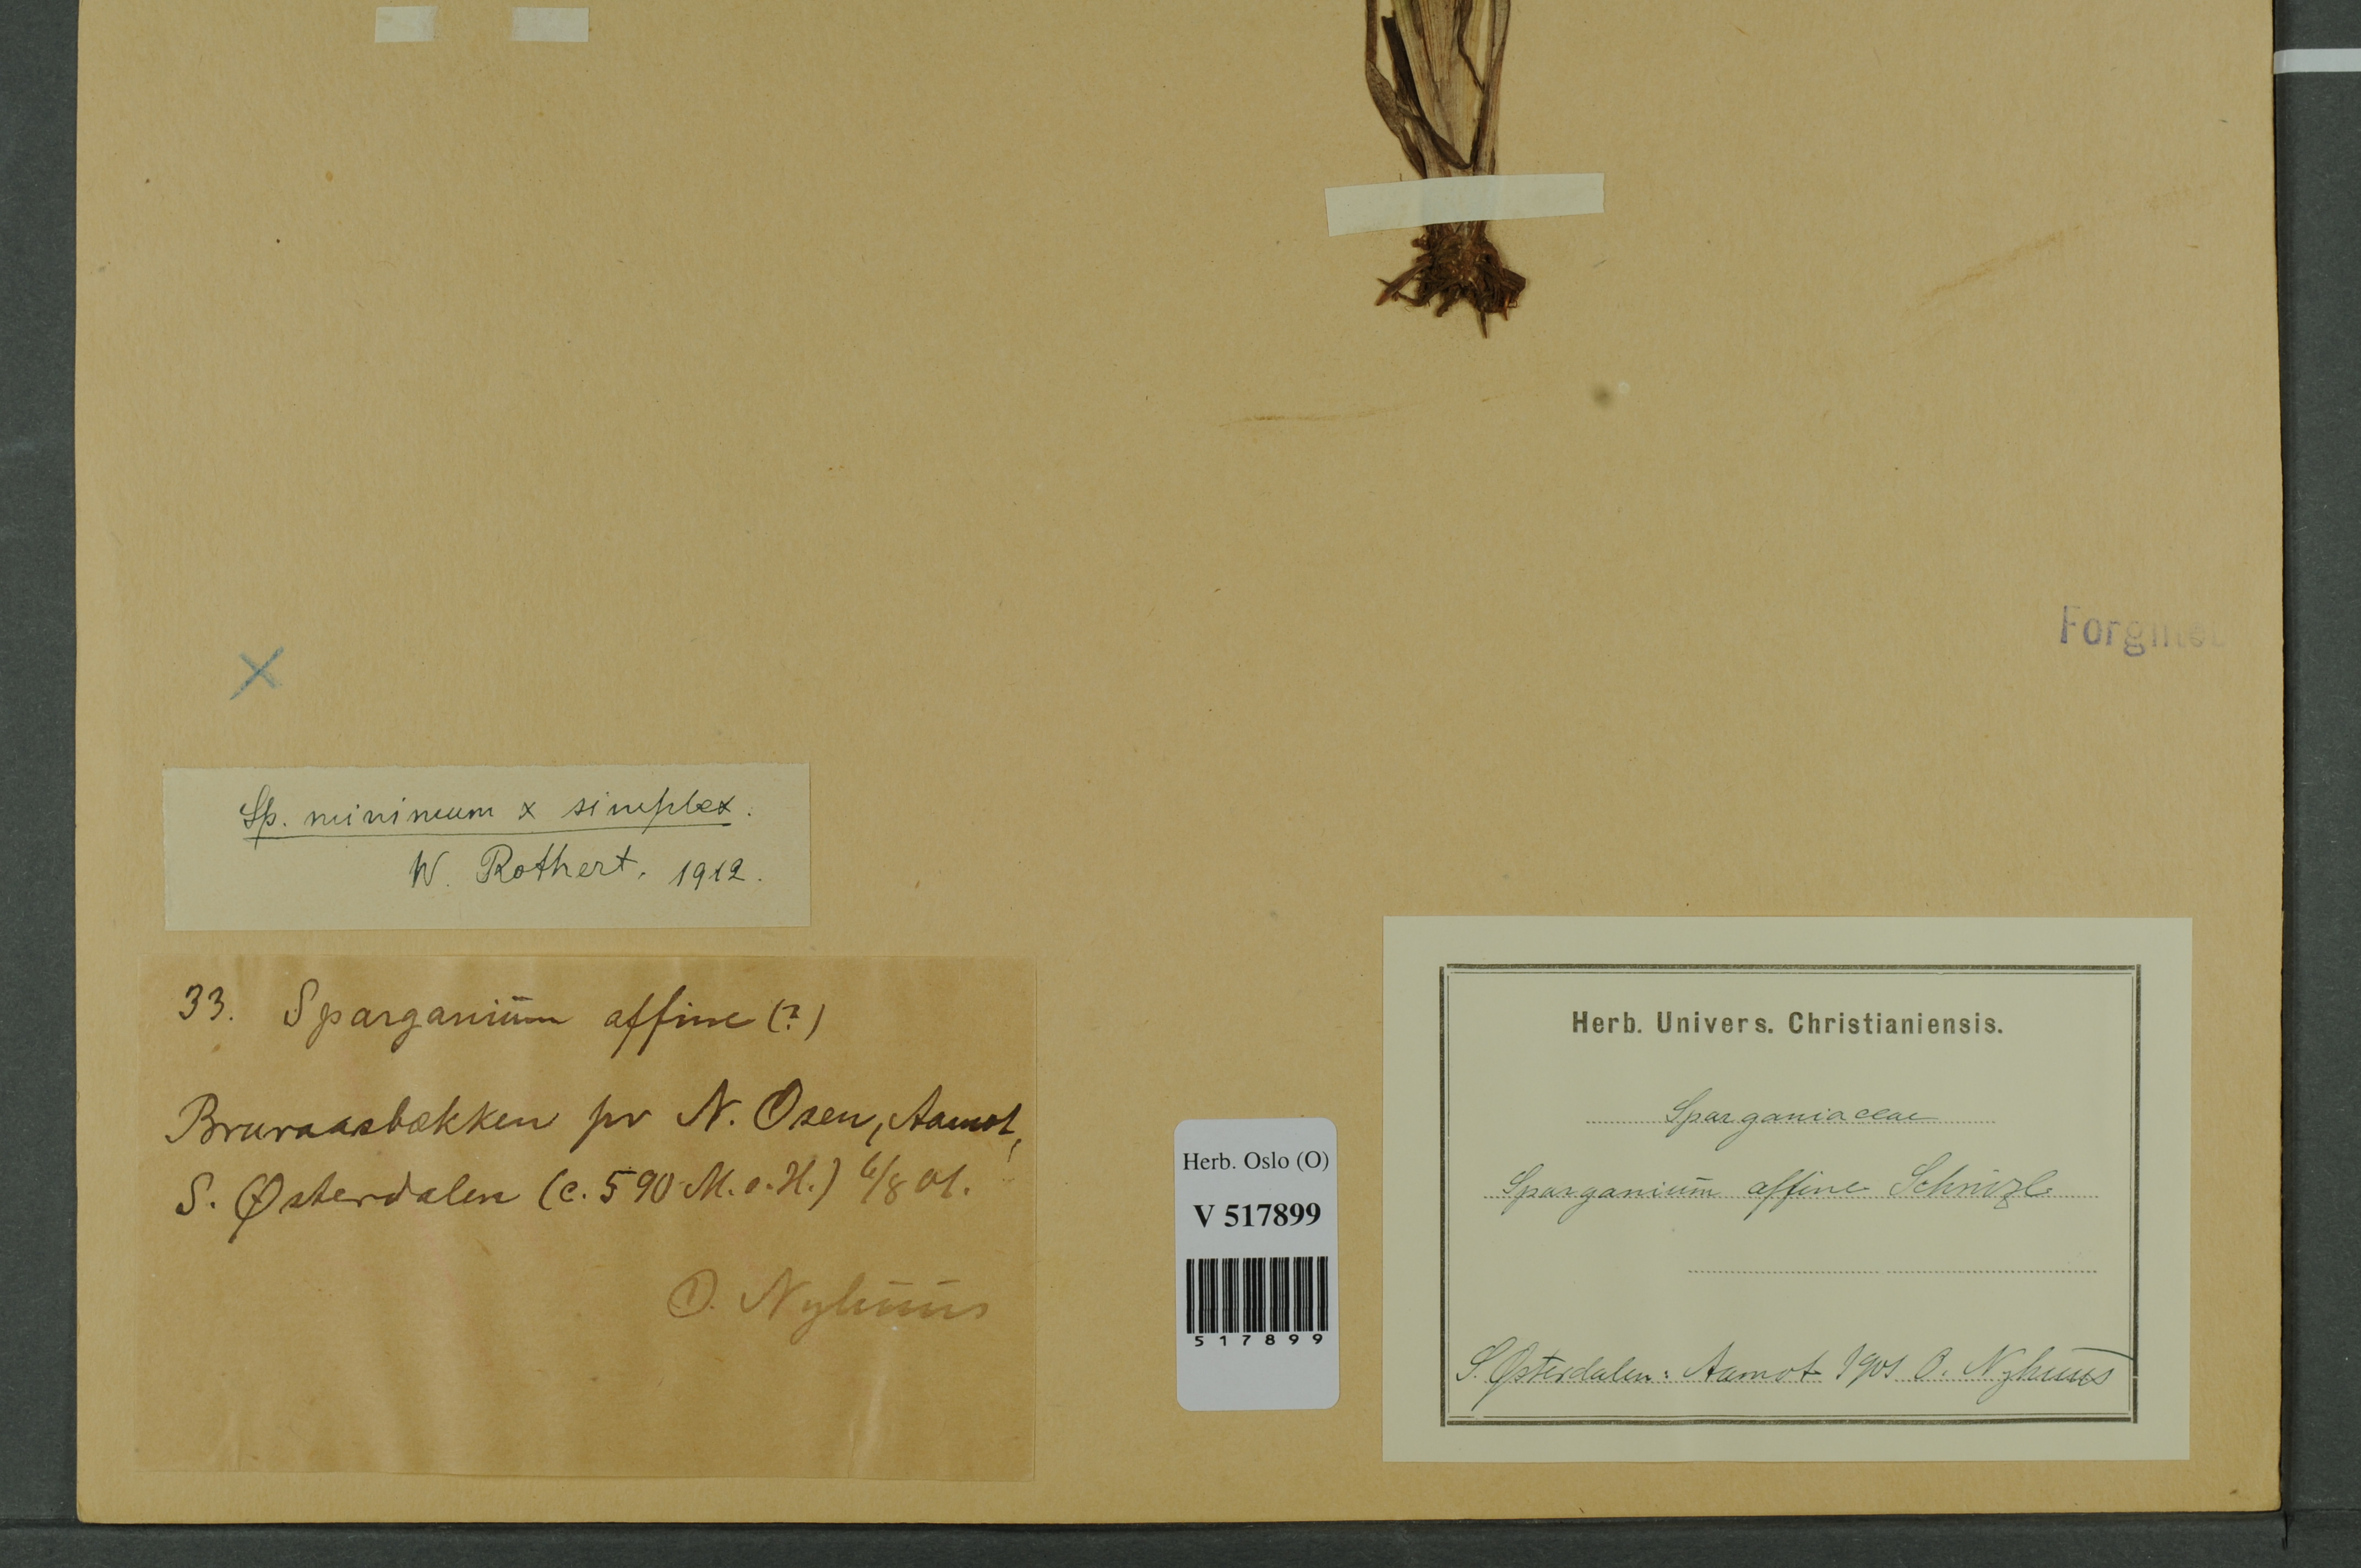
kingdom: Plantae
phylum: Tracheophyta
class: Liliopsida
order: Poales
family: Typhaceae
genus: Sparganium
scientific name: Sparganium
